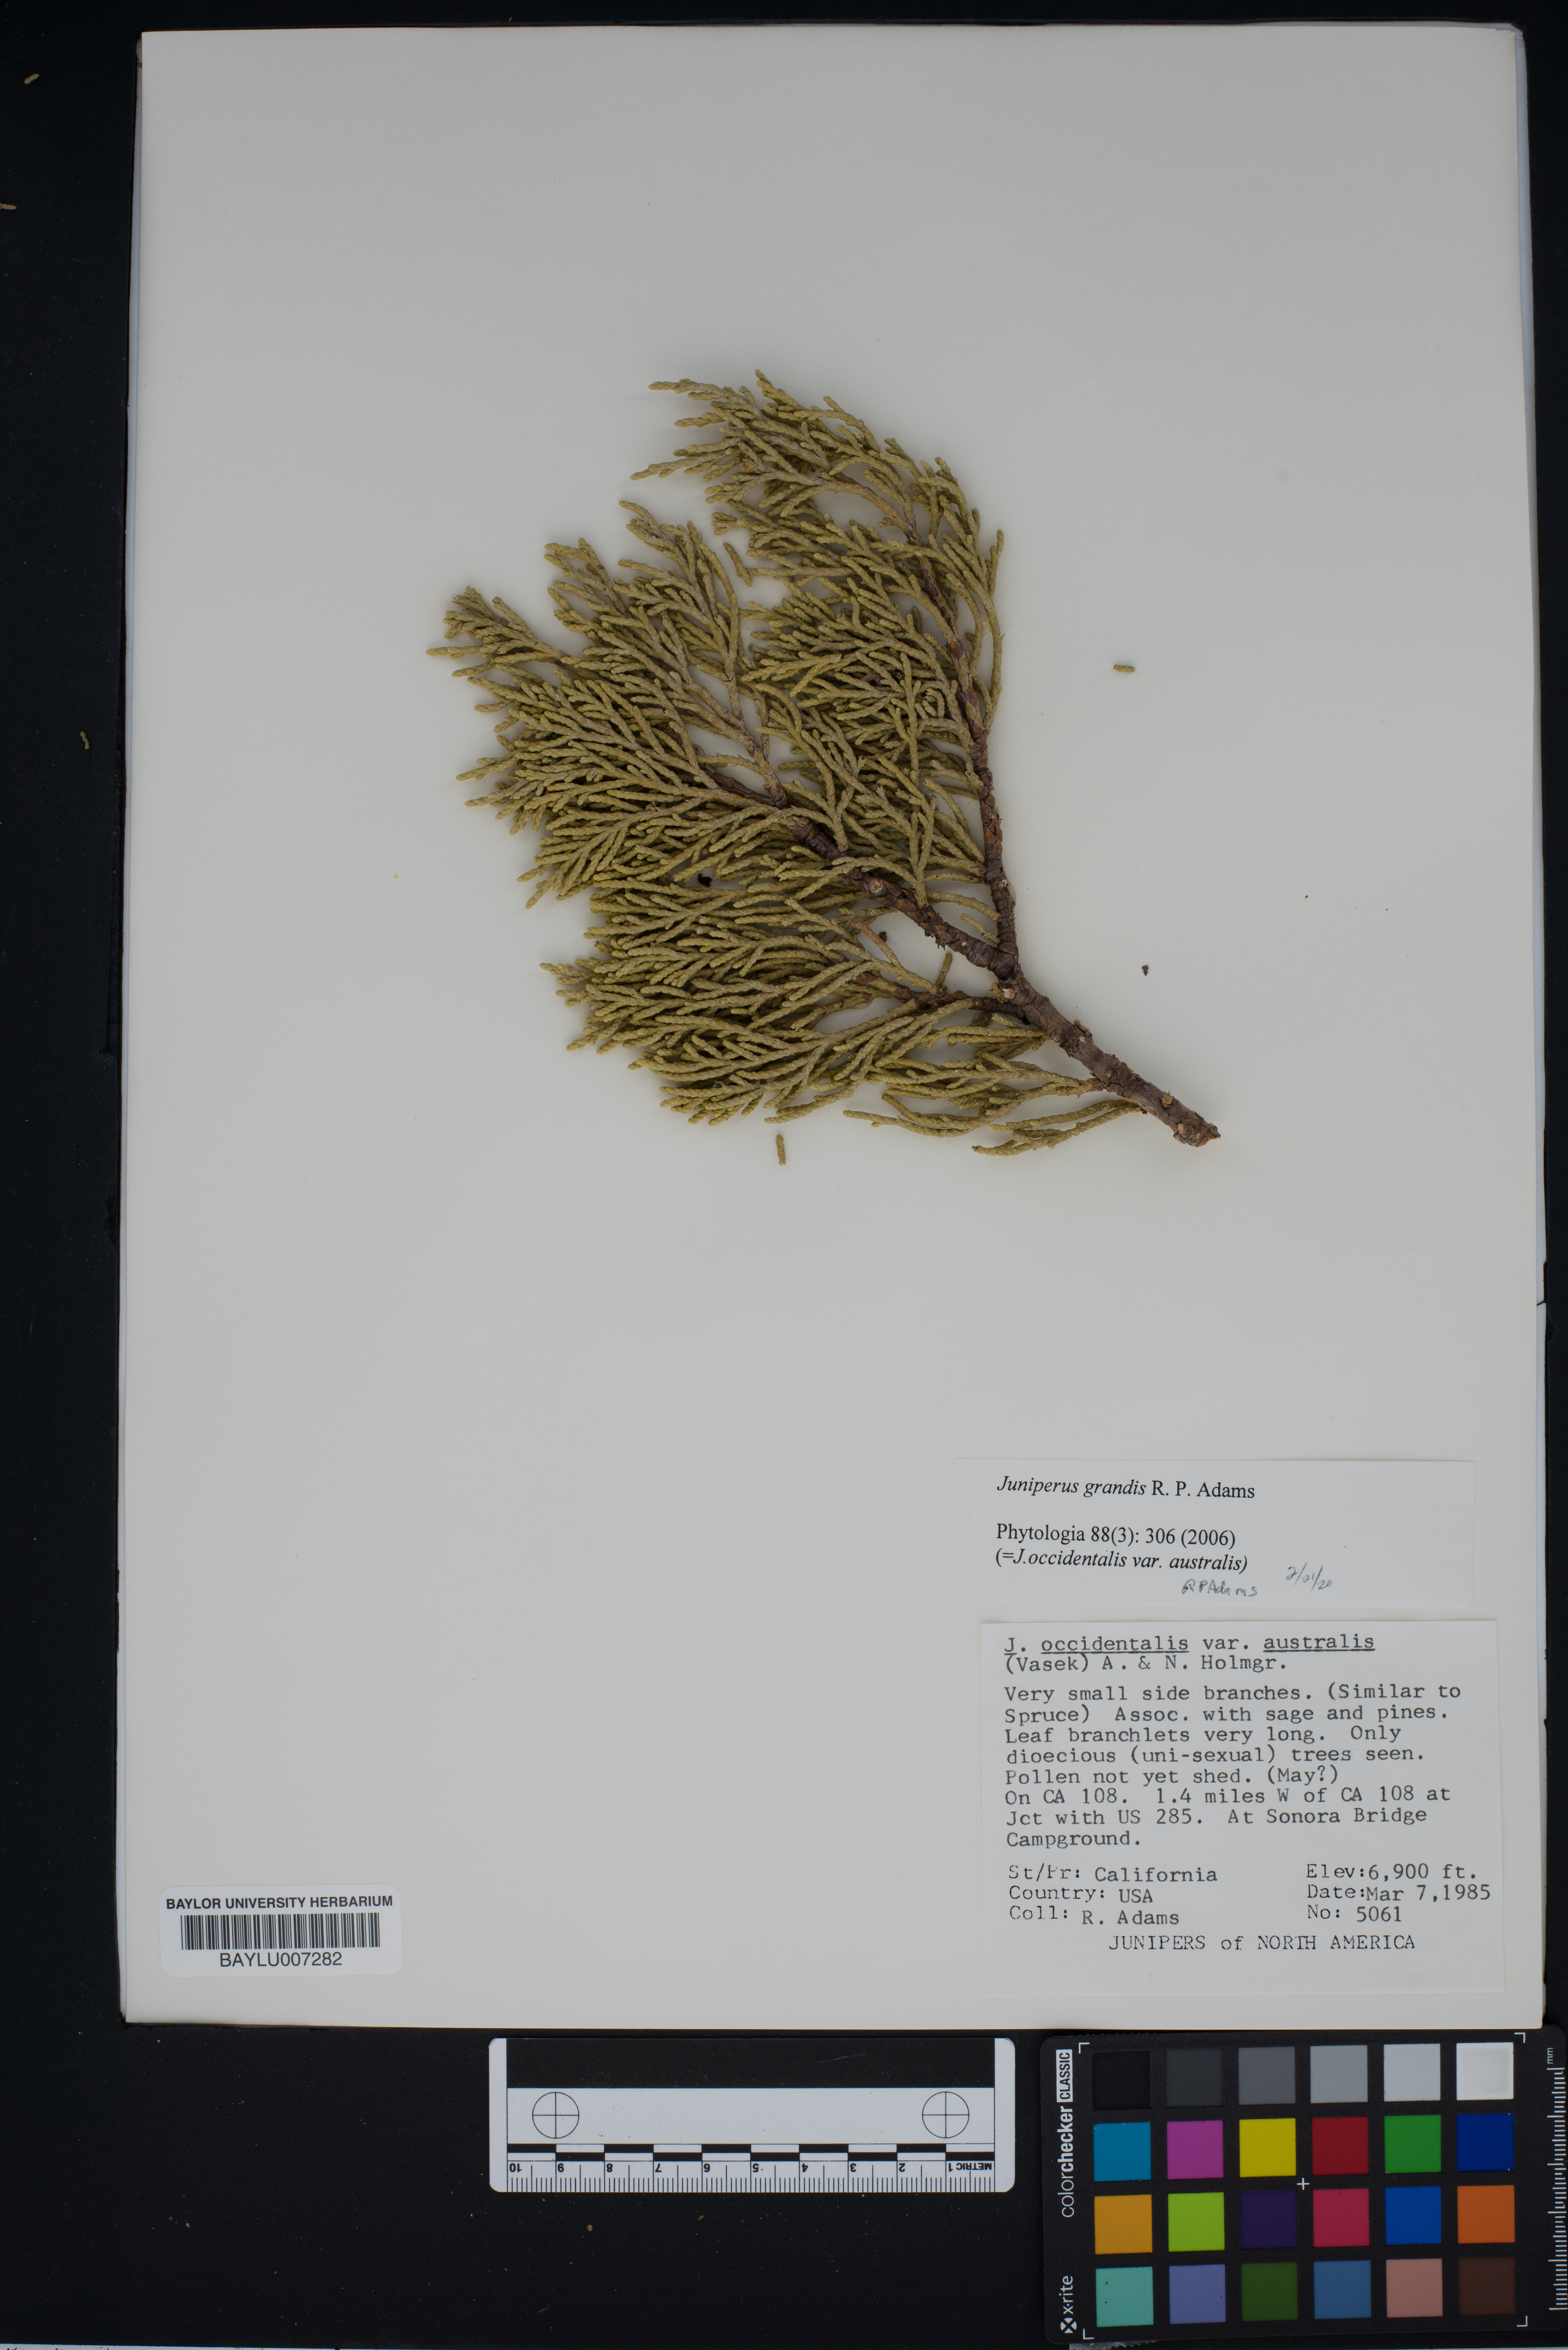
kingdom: Plantae
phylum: Tracheophyta
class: Pinopsida
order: Pinales
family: Cupressaceae
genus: Juniperus
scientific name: Juniperus occidentalis
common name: Western juniper
